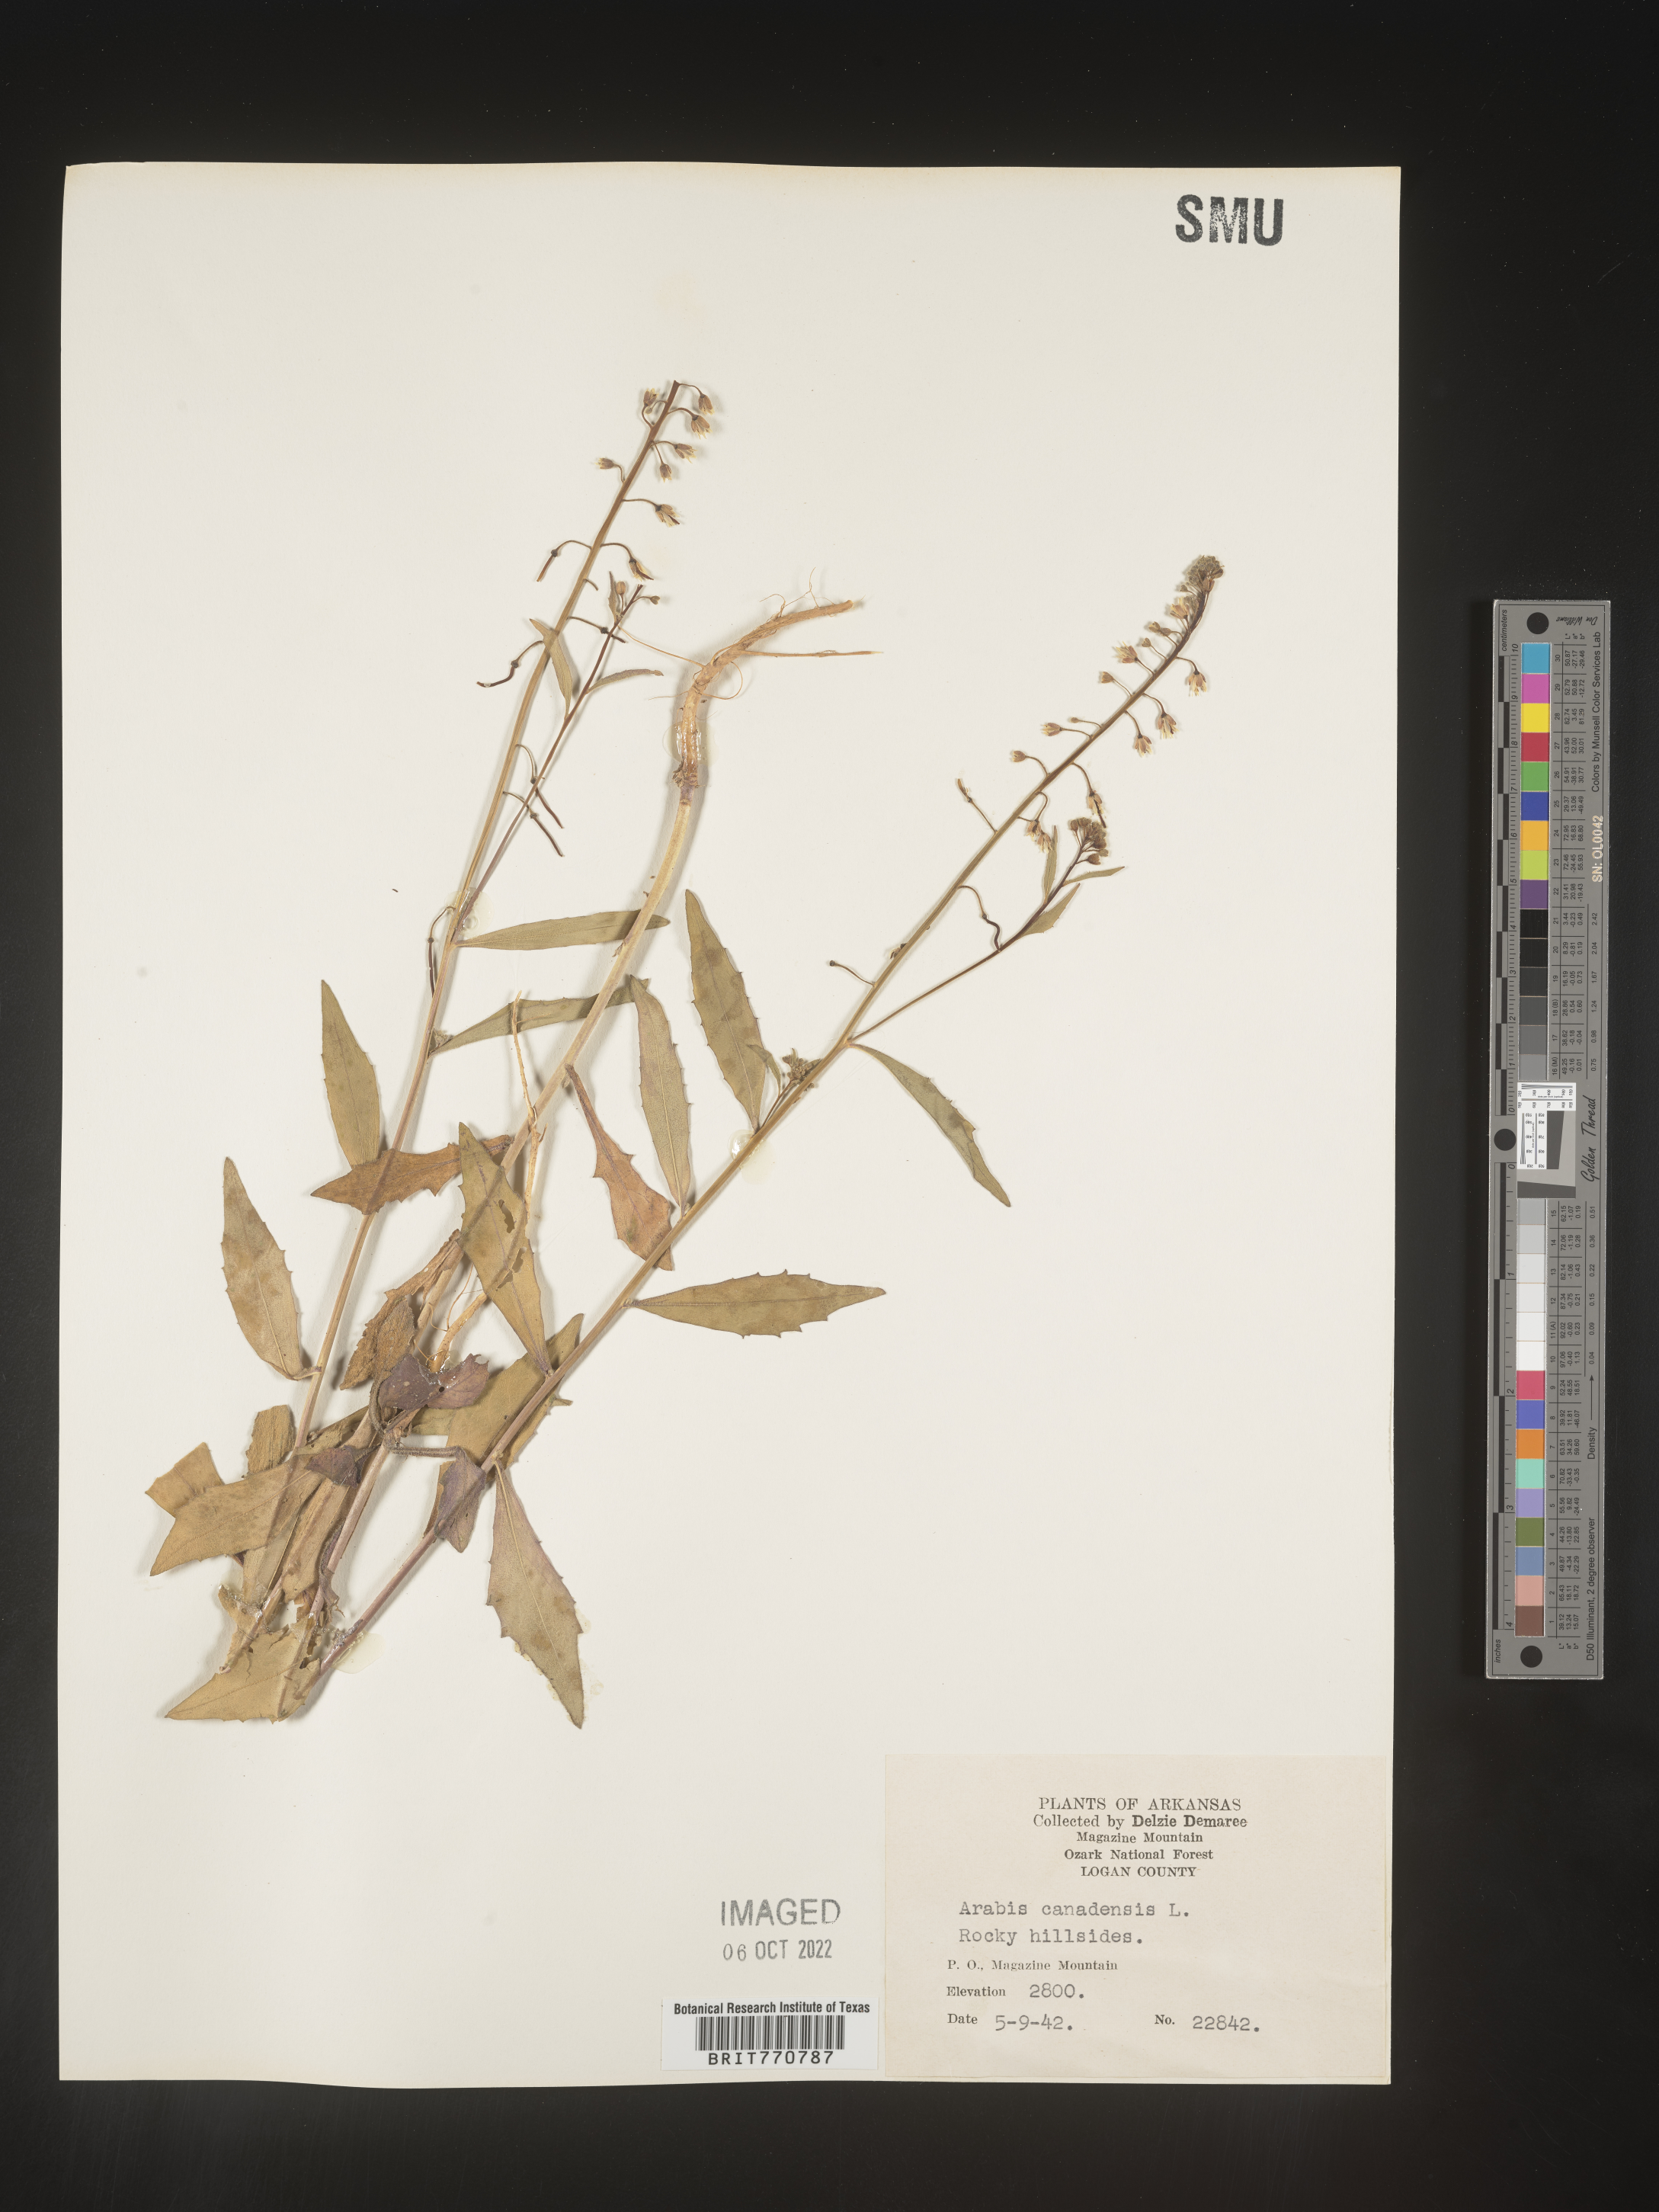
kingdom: Plantae
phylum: Tracheophyta
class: Magnoliopsida
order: Brassicales
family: Brassicaceae
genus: Borodinia
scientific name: Borodinia canadensis
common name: Sicklepod
